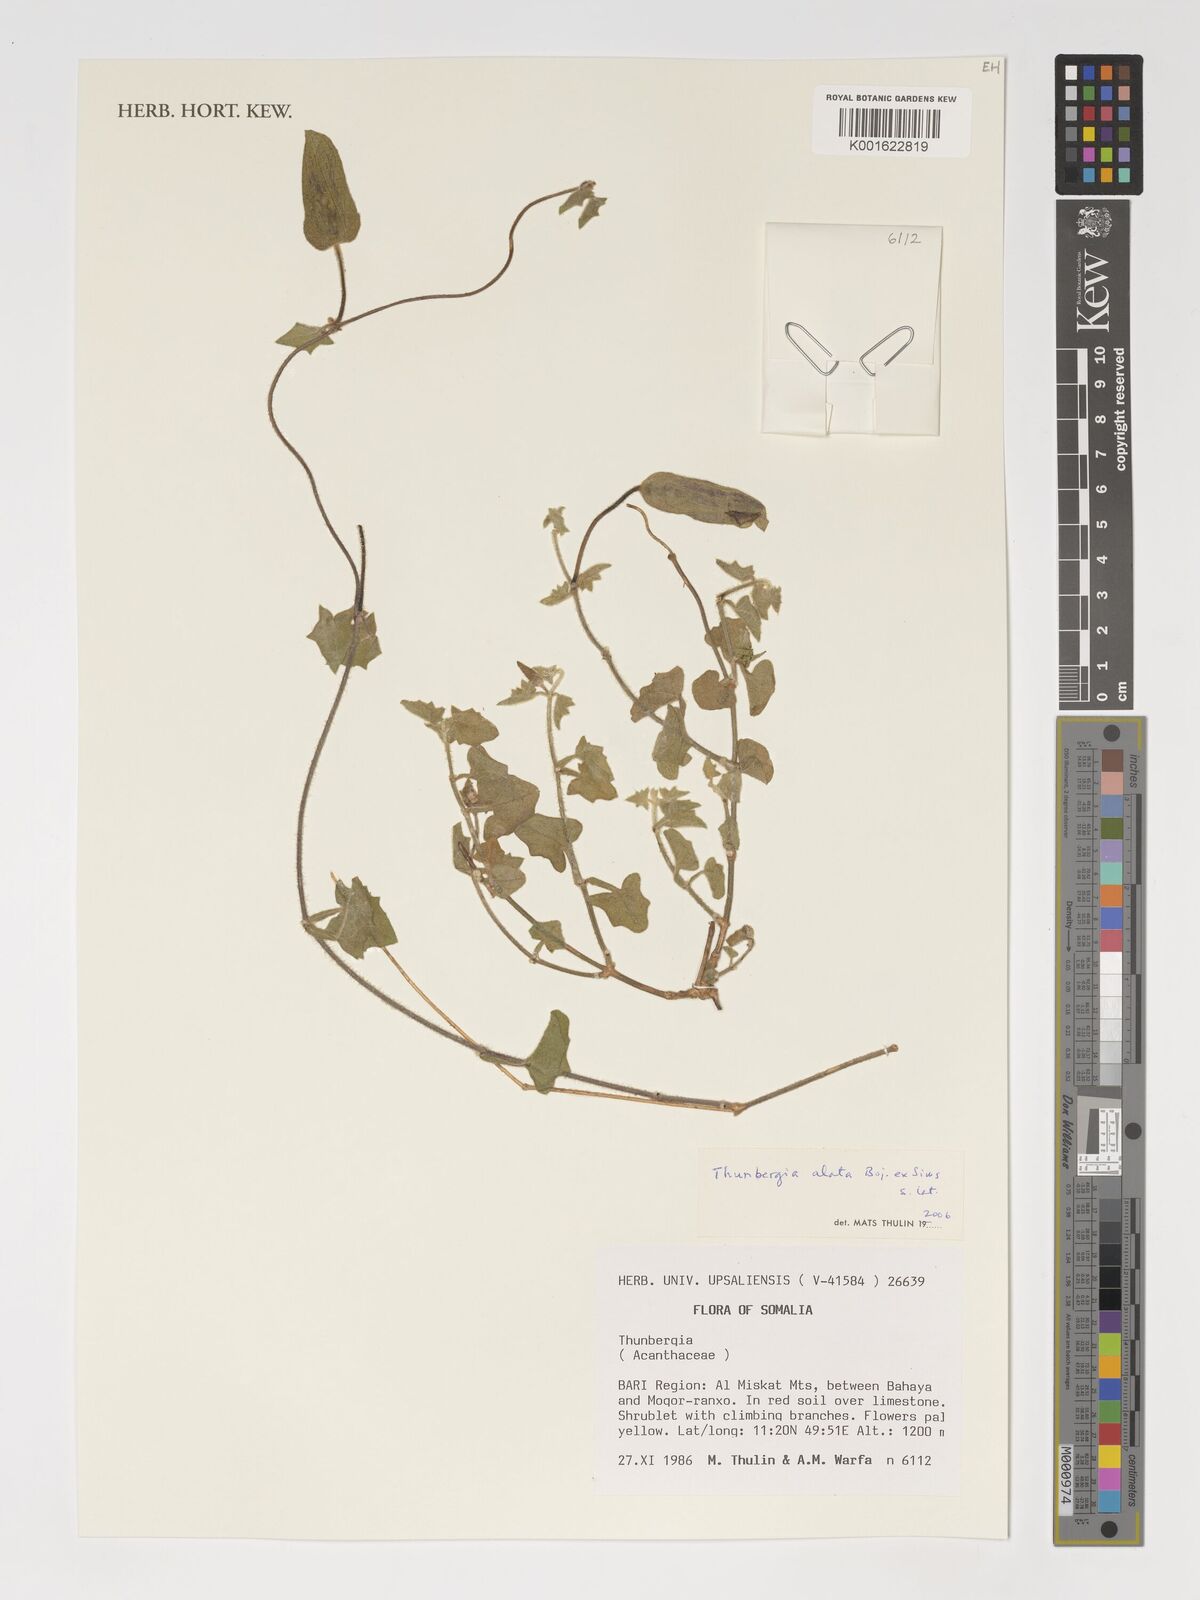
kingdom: Plantae
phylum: Tracheophyta
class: Magnoliopsida
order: Lamiales
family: Acanthaceae
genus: Thunbergia
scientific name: Thunbergia alata
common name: Blackeyed susan vine
